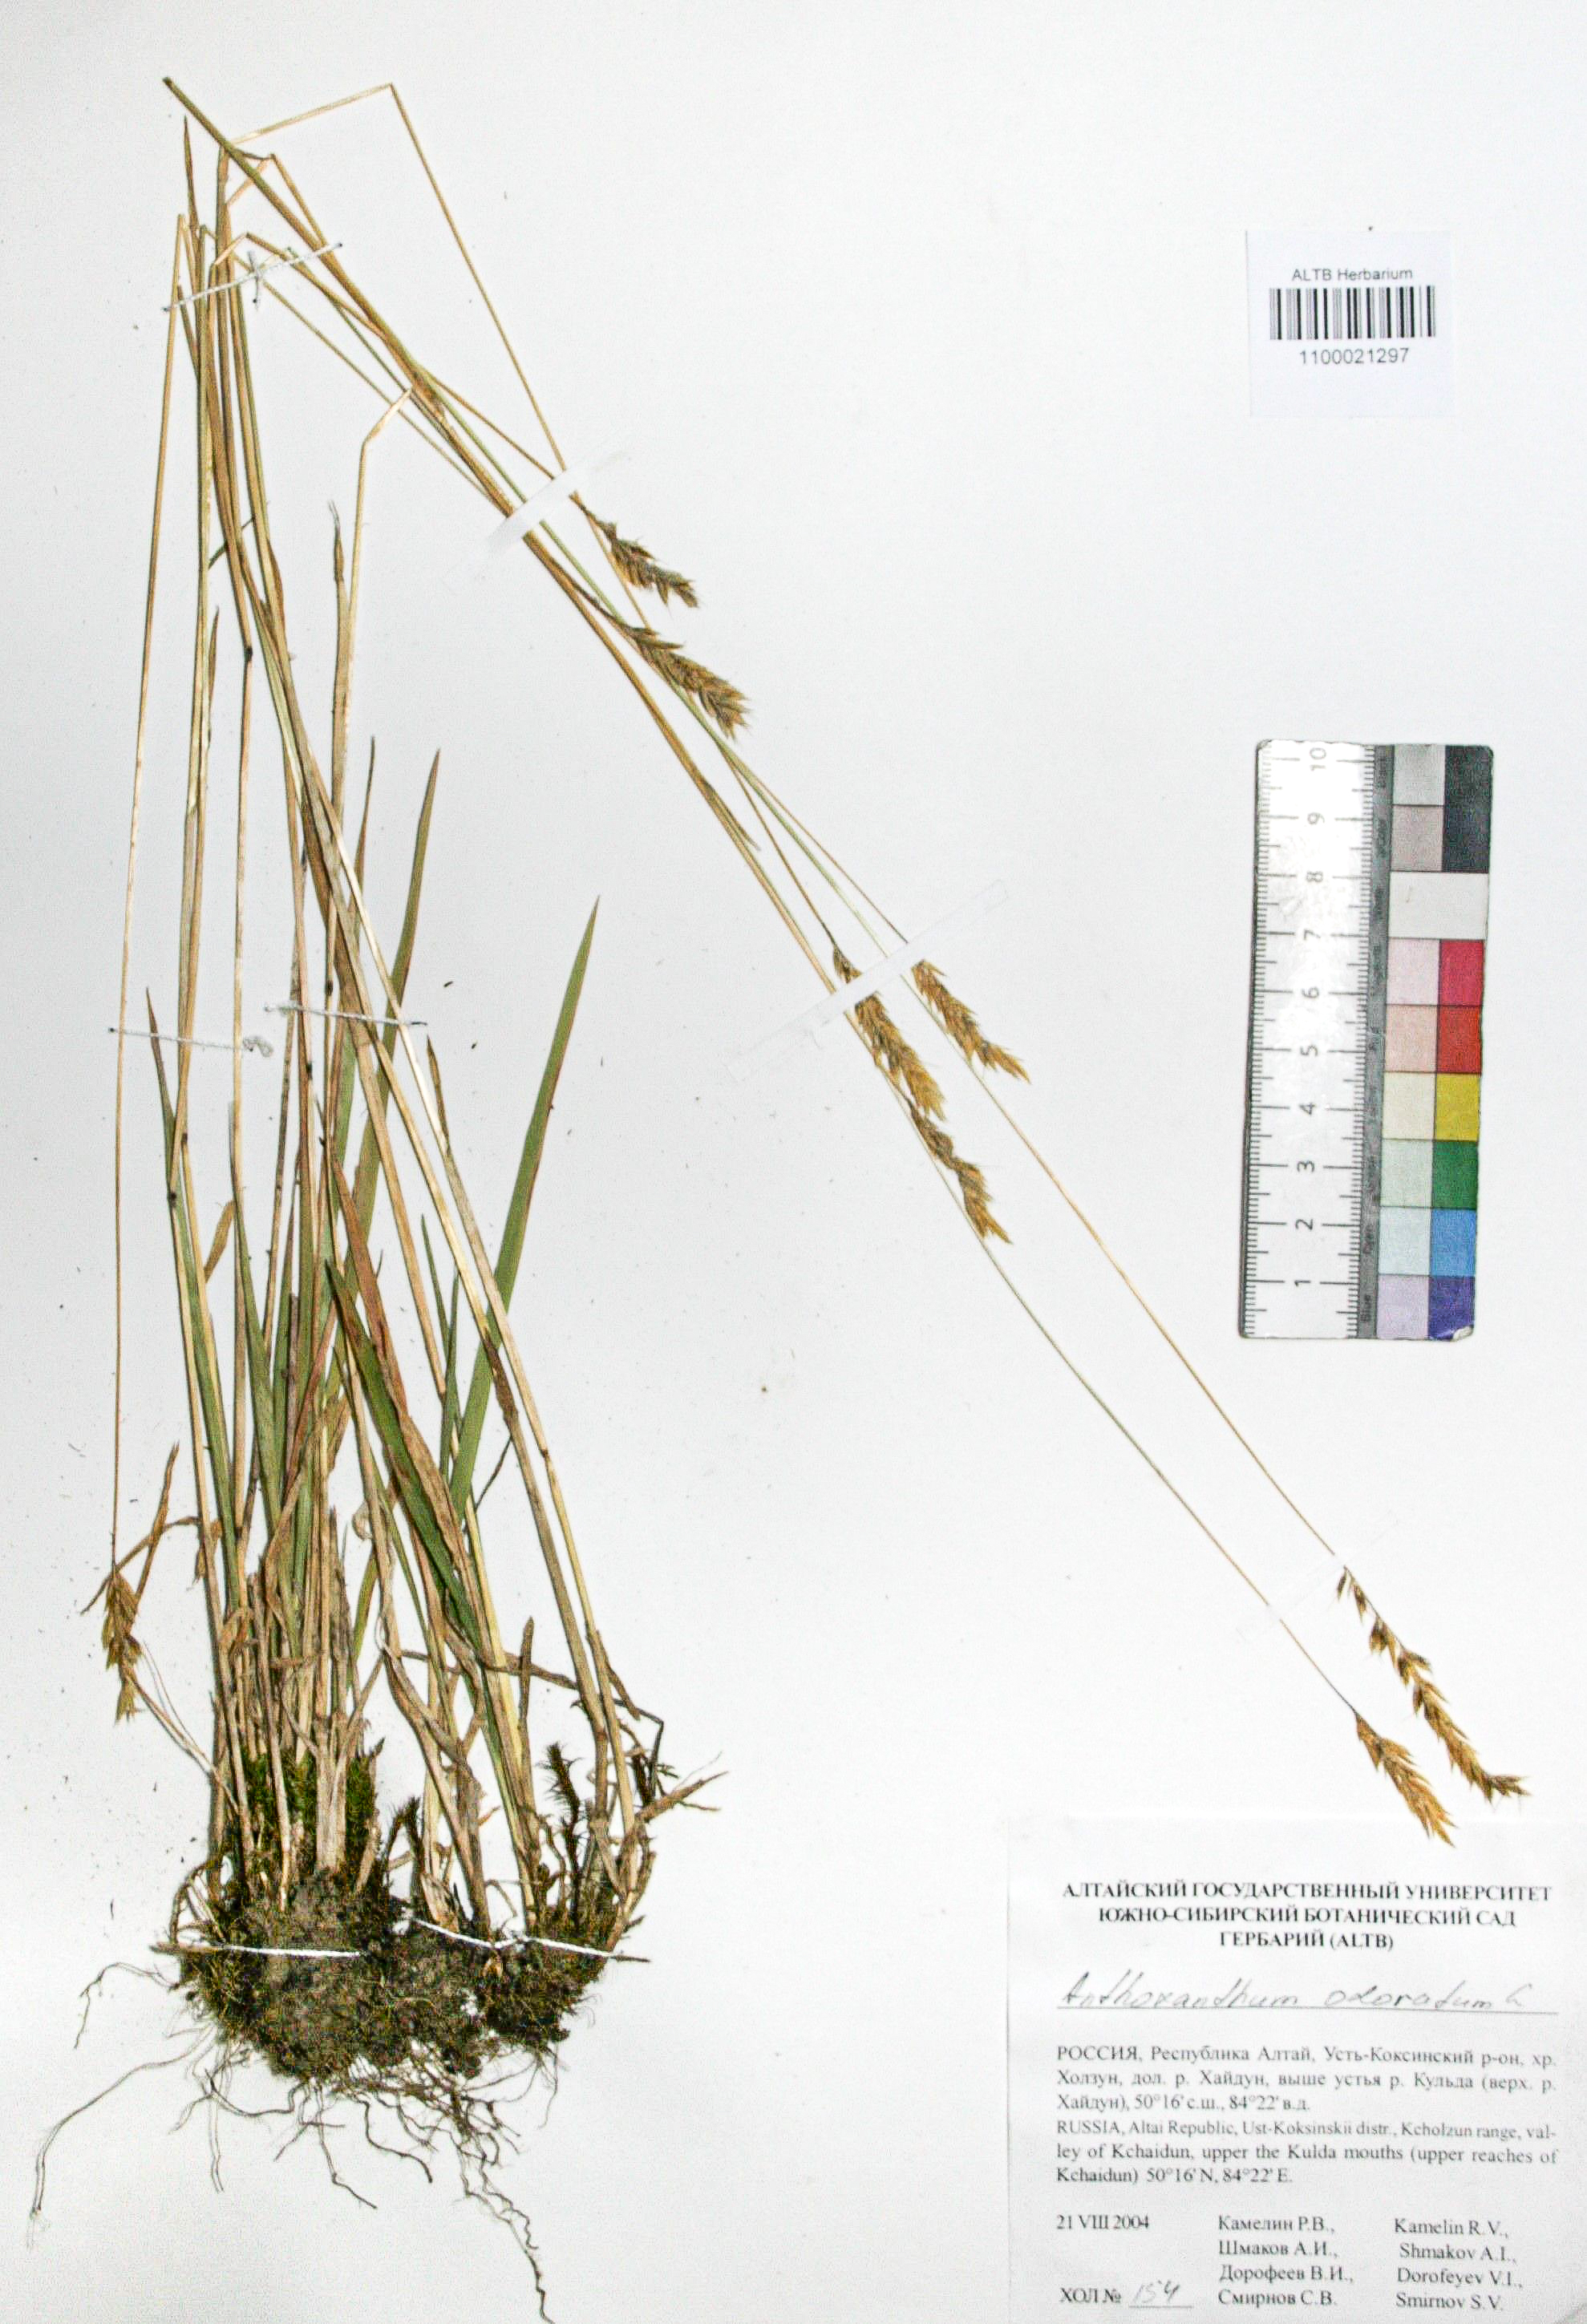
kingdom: Plantae
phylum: Tracheophyta
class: Liliopsida
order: Poales
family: Poaceae
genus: Anthoxanthum
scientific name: Anthoxanthum odoratum
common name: Sweet vernalgrass
